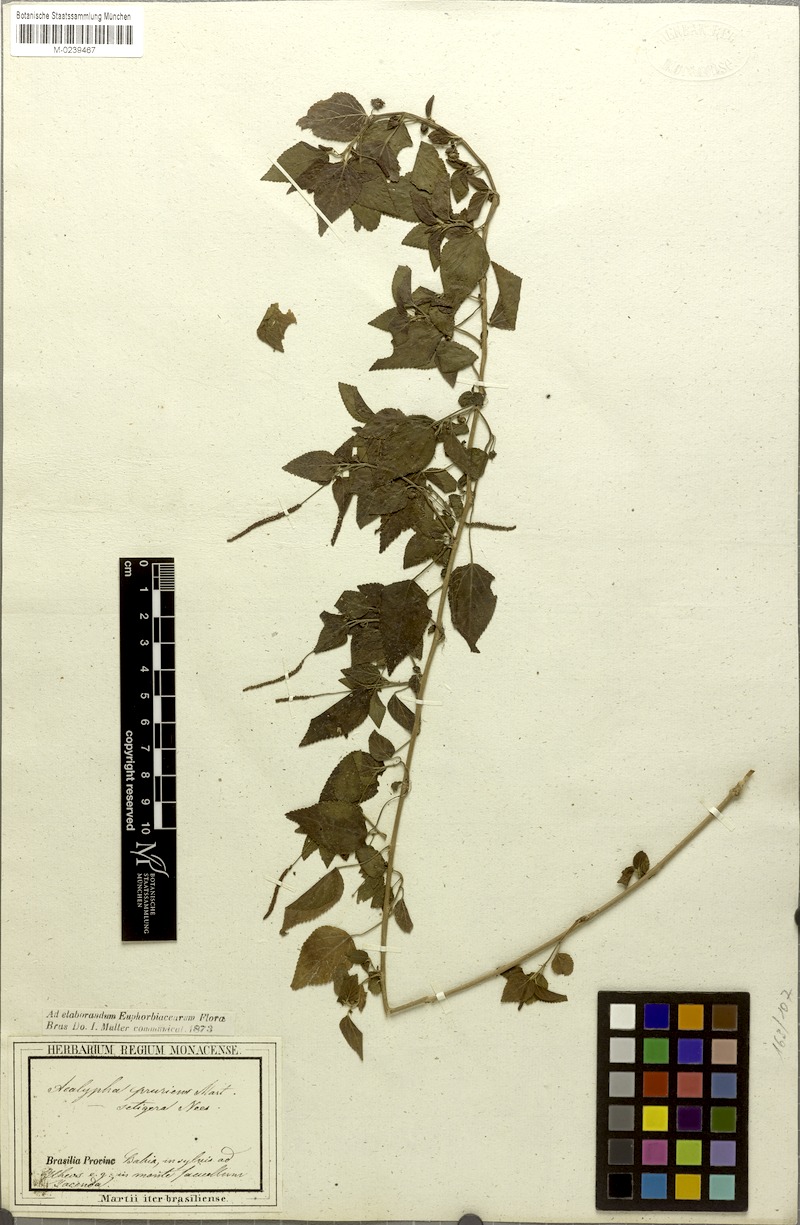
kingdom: Plantae
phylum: Tracheophyta
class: Magnoliopsida
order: Malpighiales
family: Euphorbiaceae
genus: Acalypha
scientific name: Acalypha pruriens
